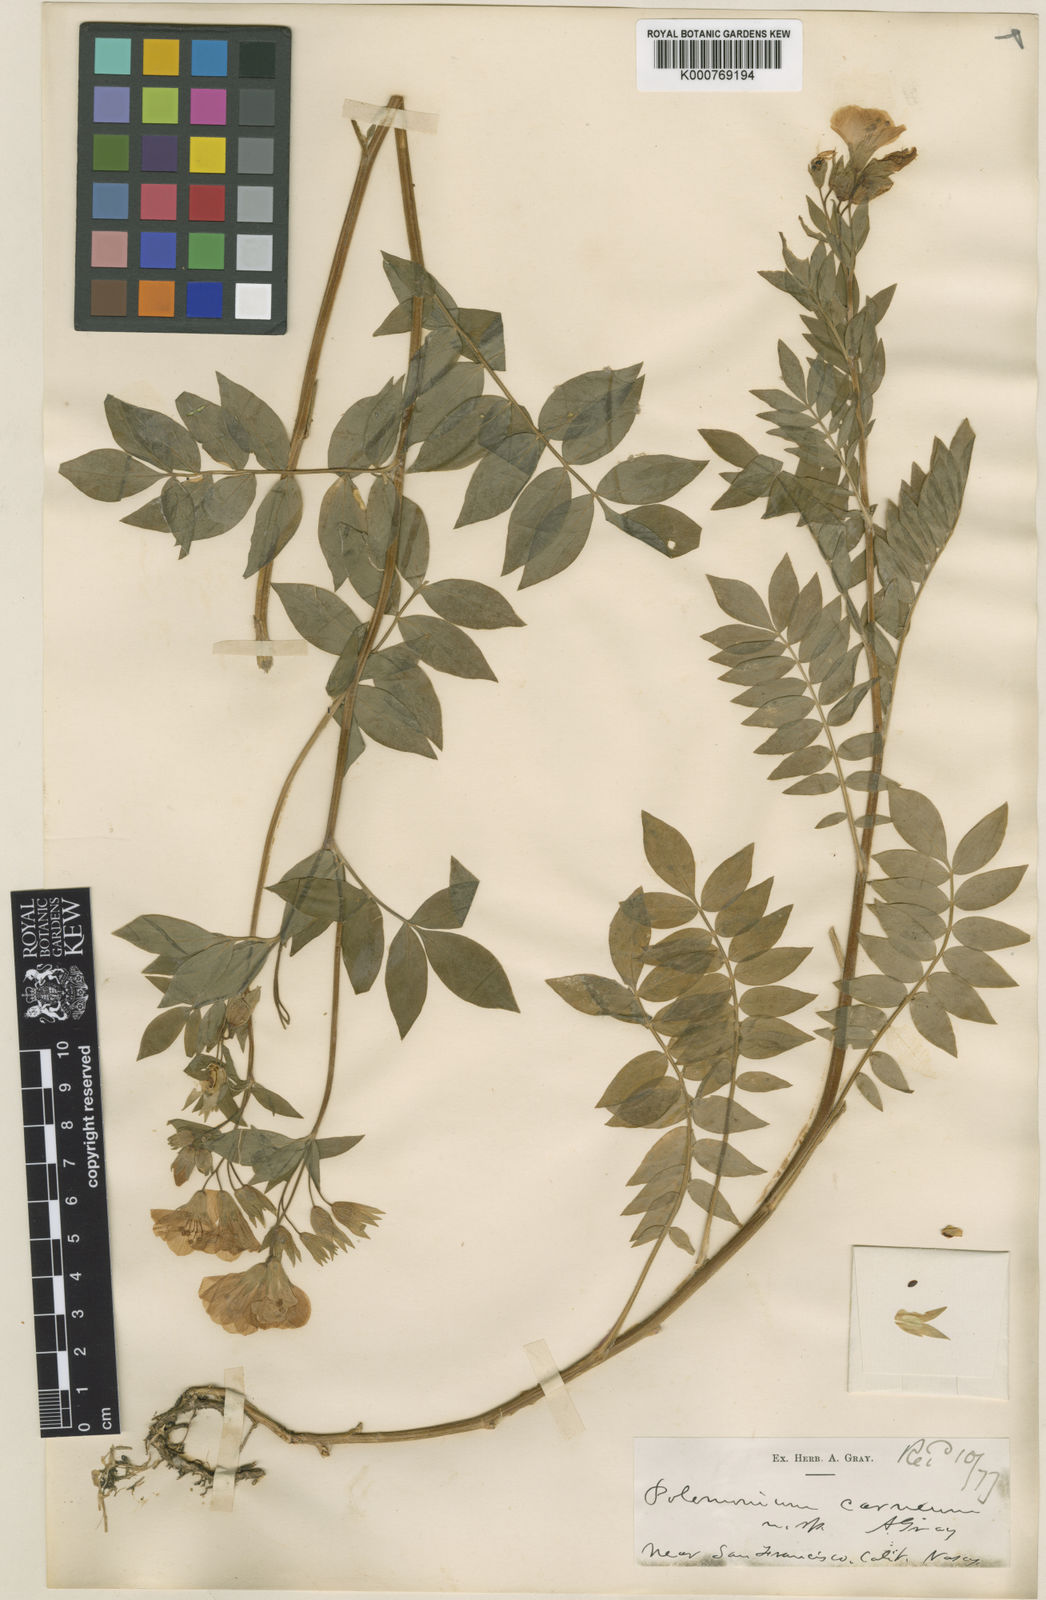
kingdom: Plantae
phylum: Tracheophyta
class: Magnoliopsida
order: Ericales
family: Polemoniaceae
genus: Polemonium
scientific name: Polemonium carneum
